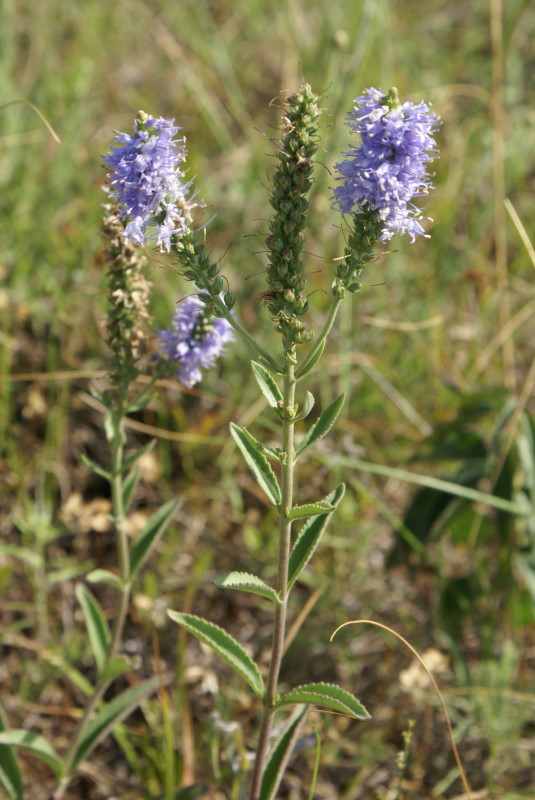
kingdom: Plantae
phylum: Tracheophyta
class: Magnoliopsida
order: Lamiales
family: Plantaginaceae
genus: Veronica
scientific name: Veronica spicata
